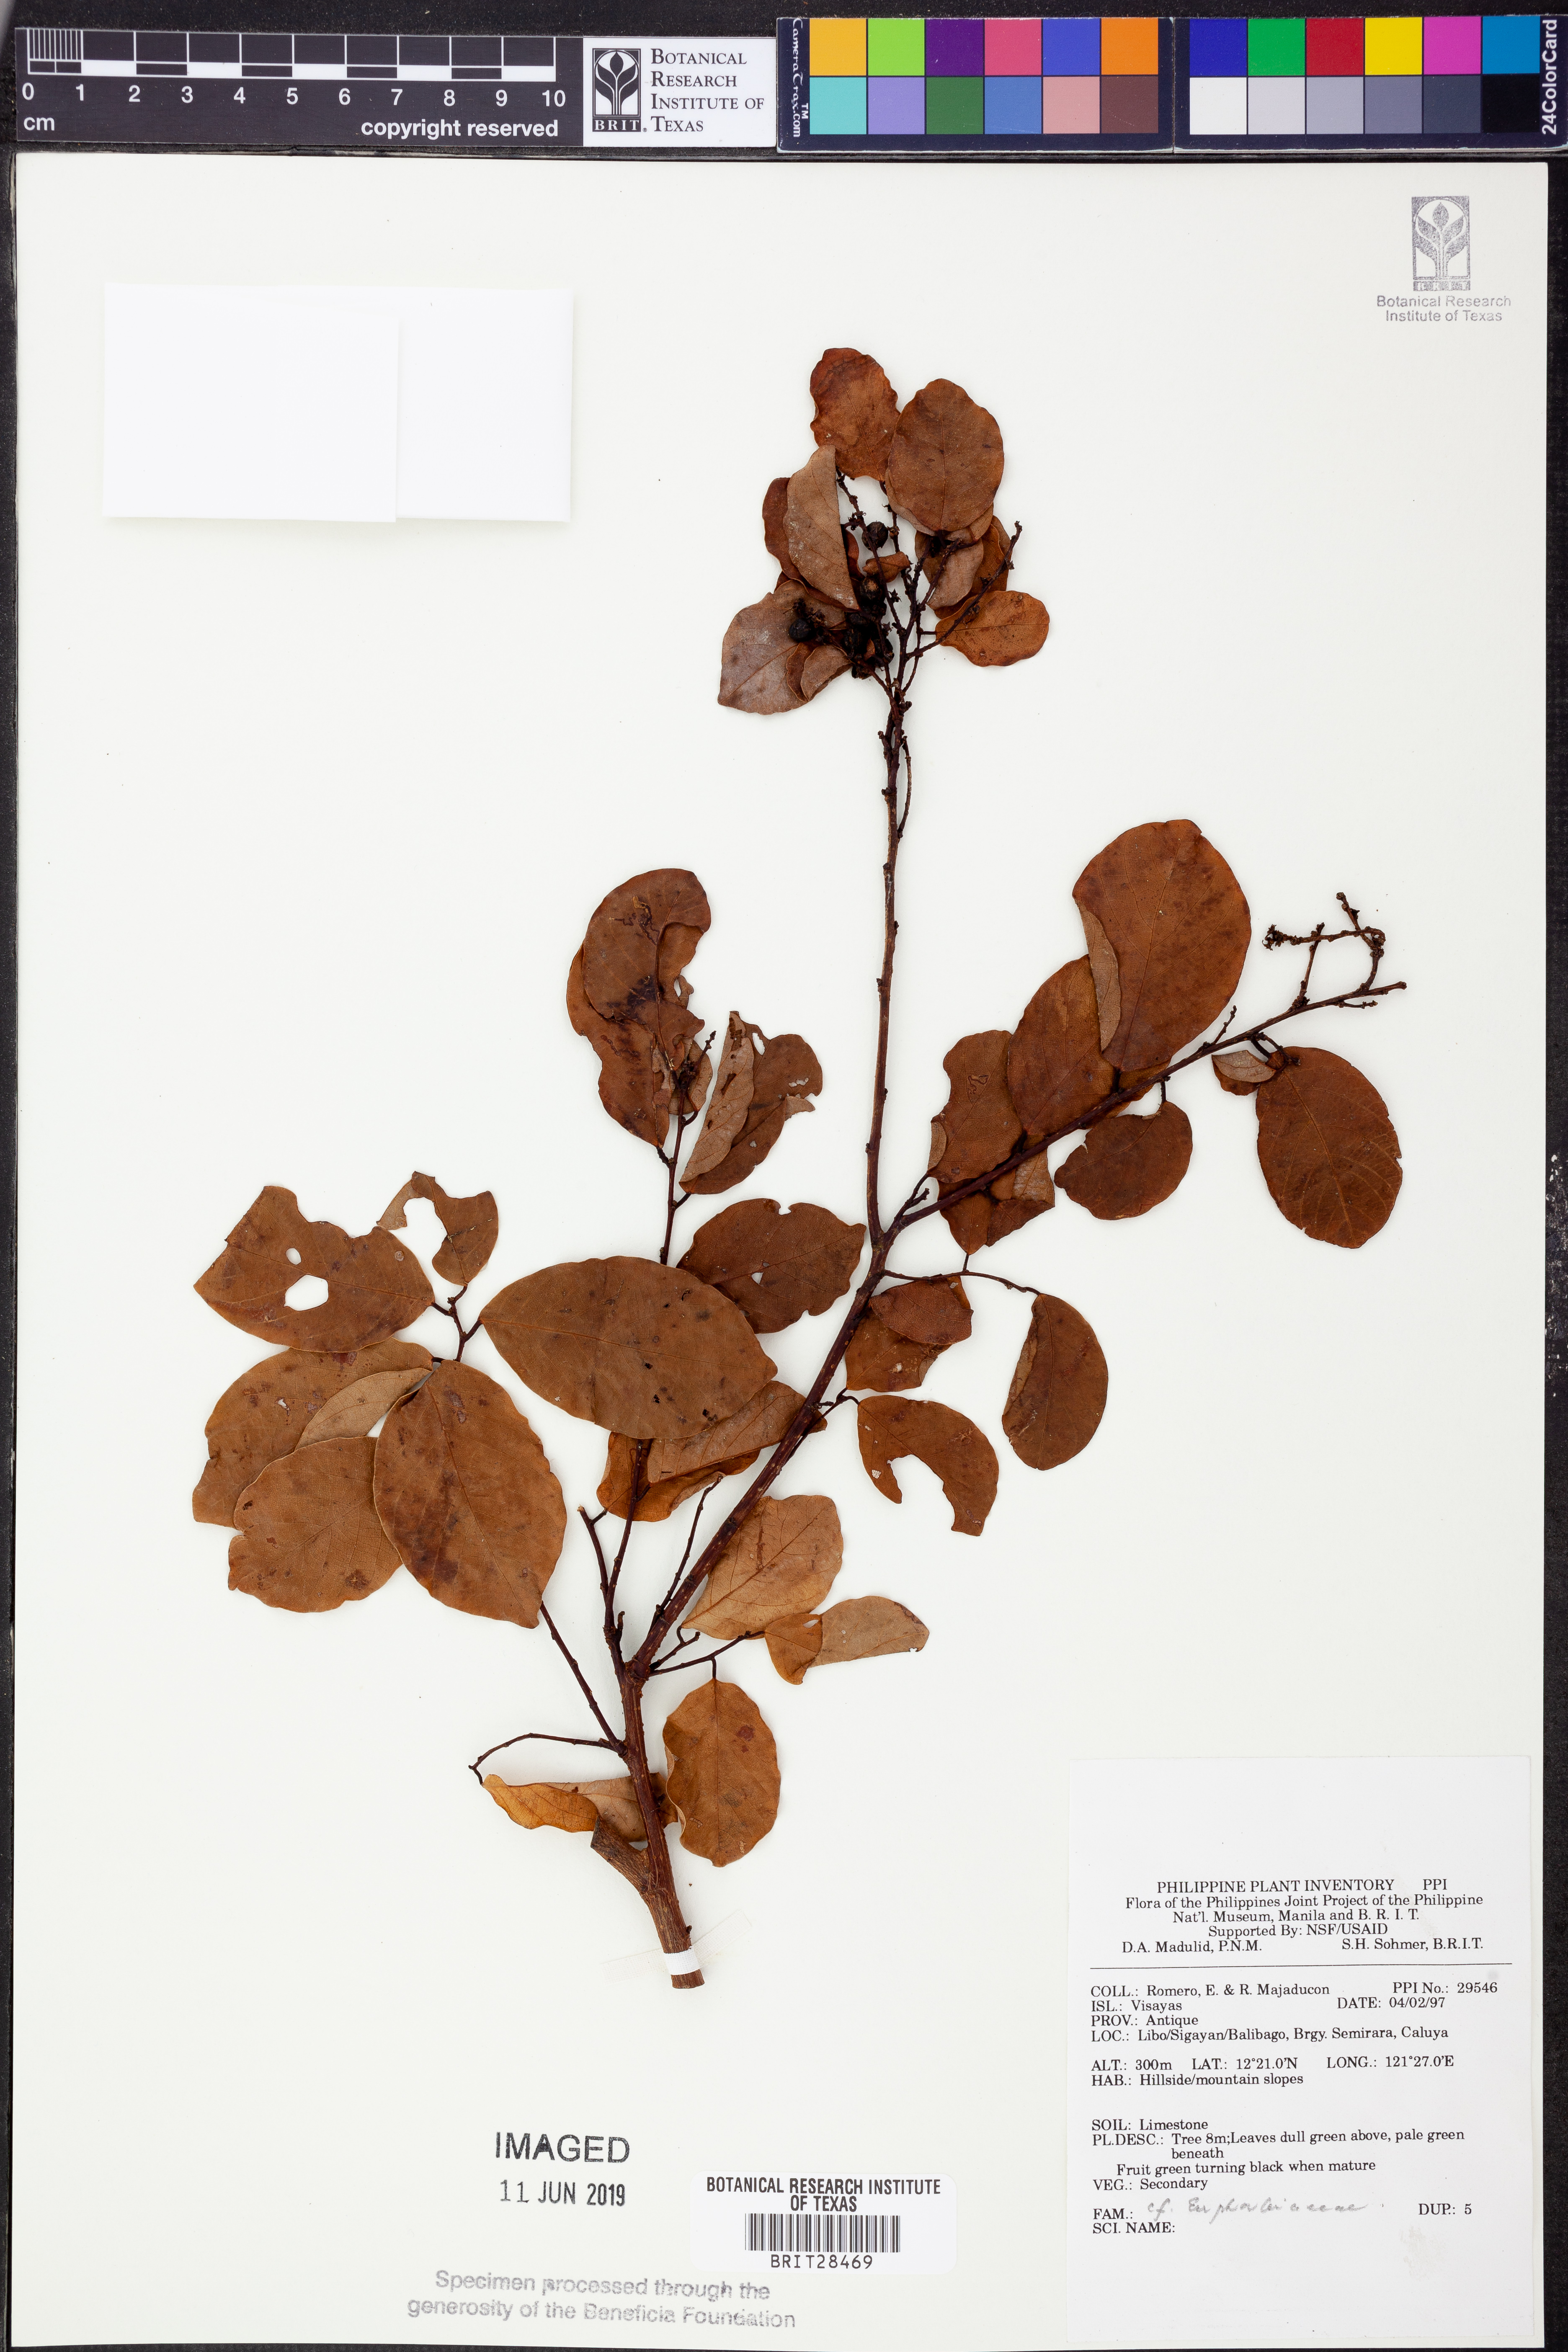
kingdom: Plantae
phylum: Tracheophyta
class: Magnoliopsida
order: Malpighiales
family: Euphorbiaceae
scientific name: Euphorbiaceae
